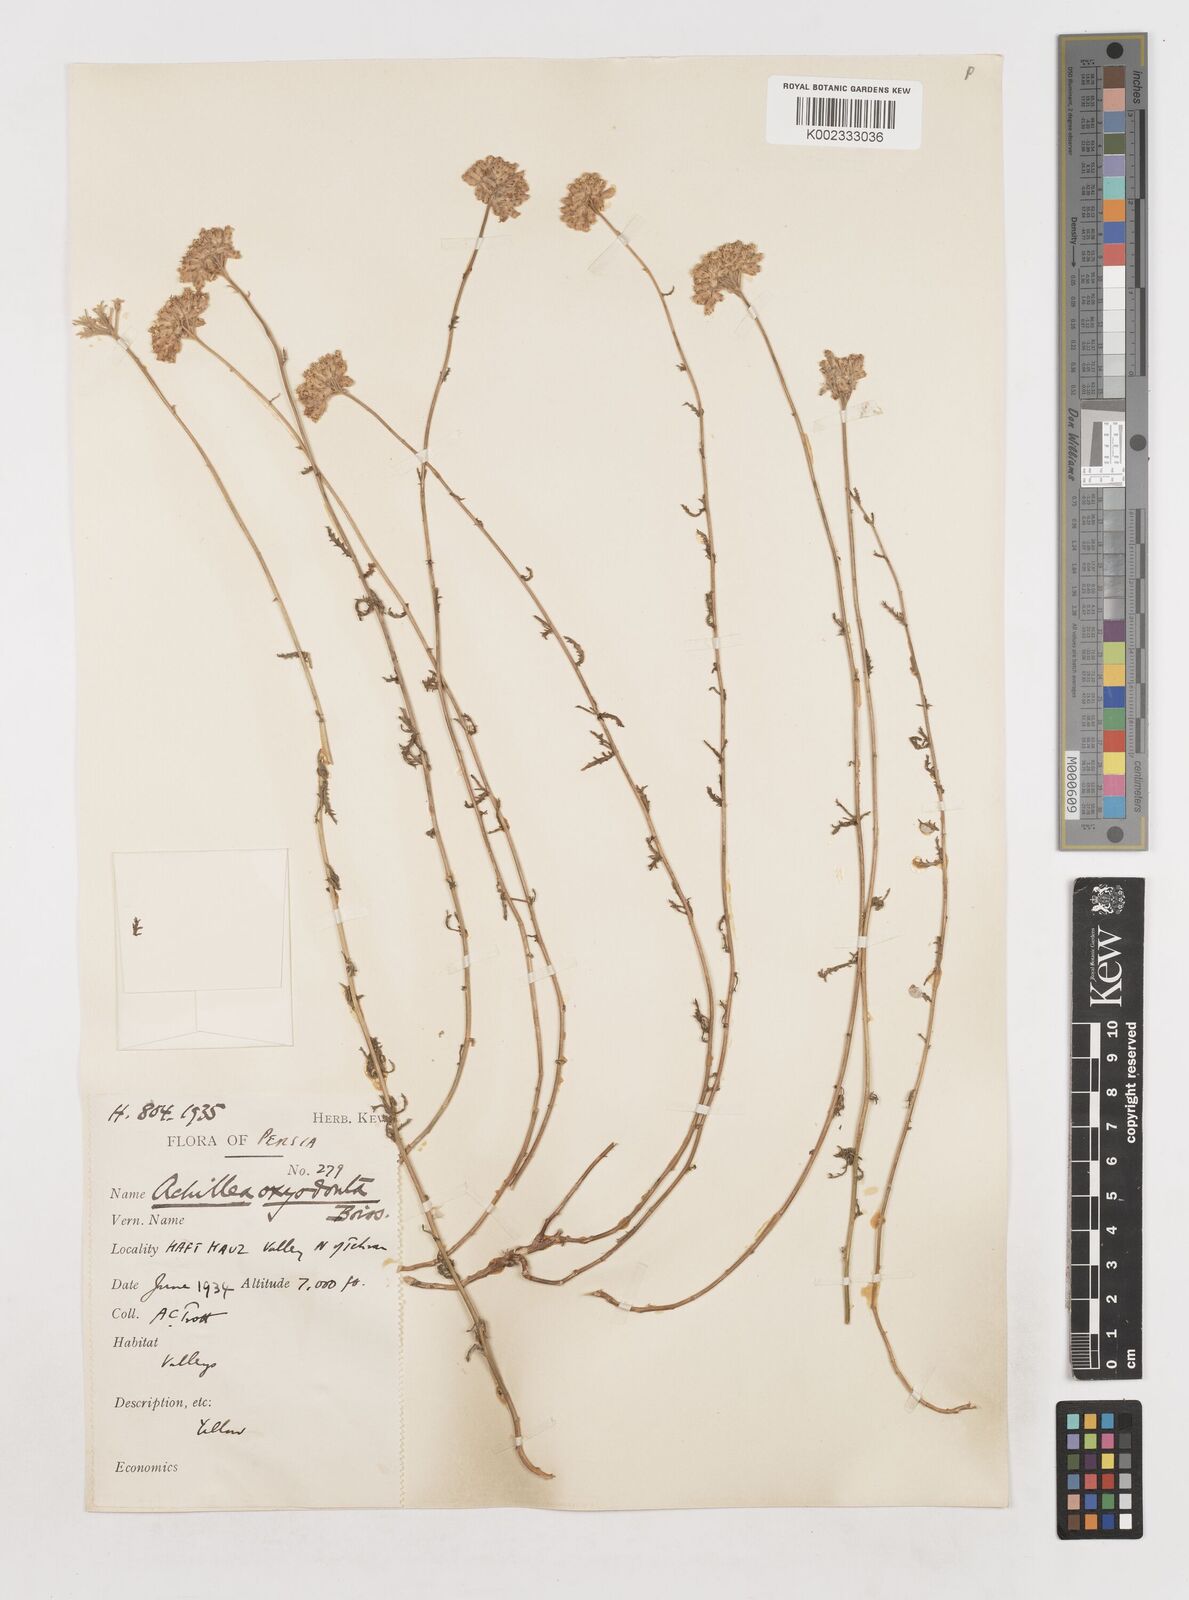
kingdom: Plantae
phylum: Tracheophyta
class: Magnoliopsida
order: Asterales
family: Asteraceae
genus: Achillea
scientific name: Achillea oxyodonta
